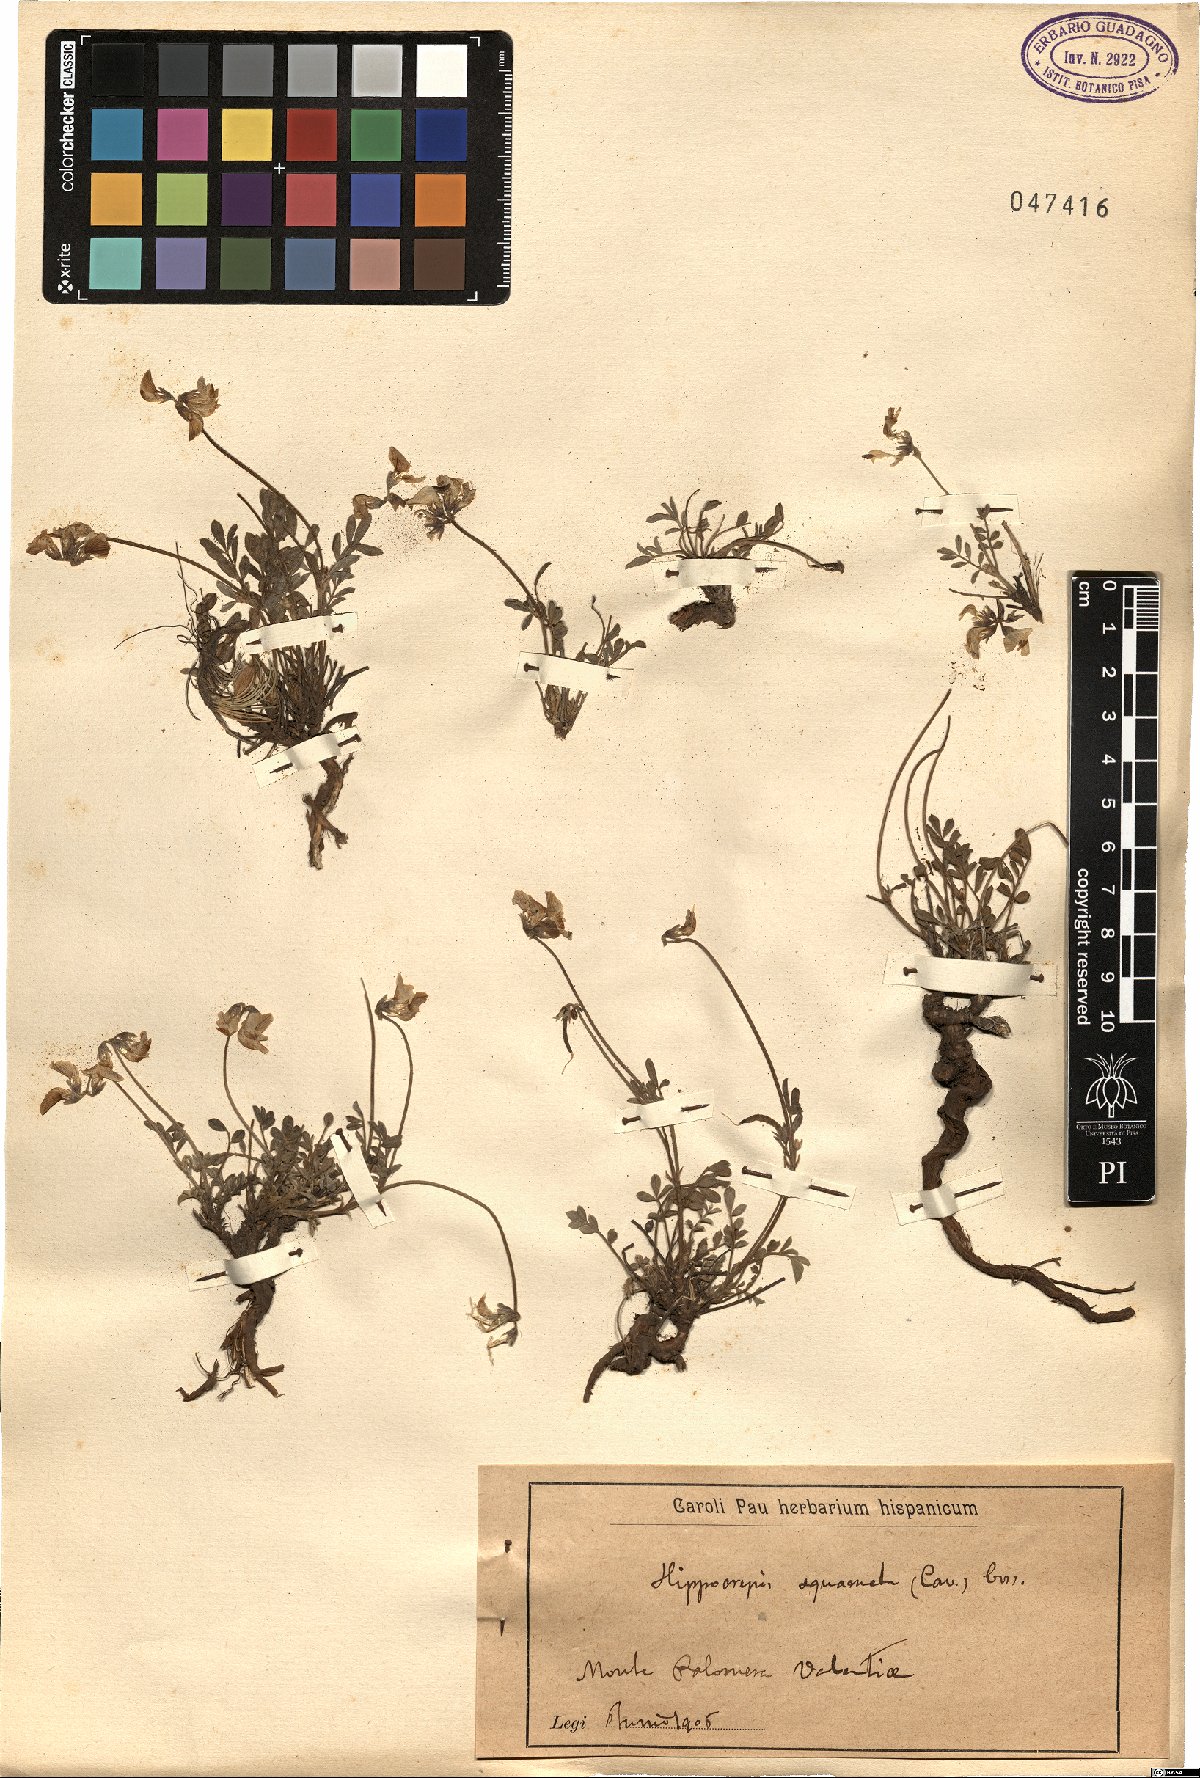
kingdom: Plantae
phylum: Tracheophyta
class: Magnoliopsida
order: Fabales
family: Fabaceae
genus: Hippocrepis
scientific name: Hippocrepis squamata
